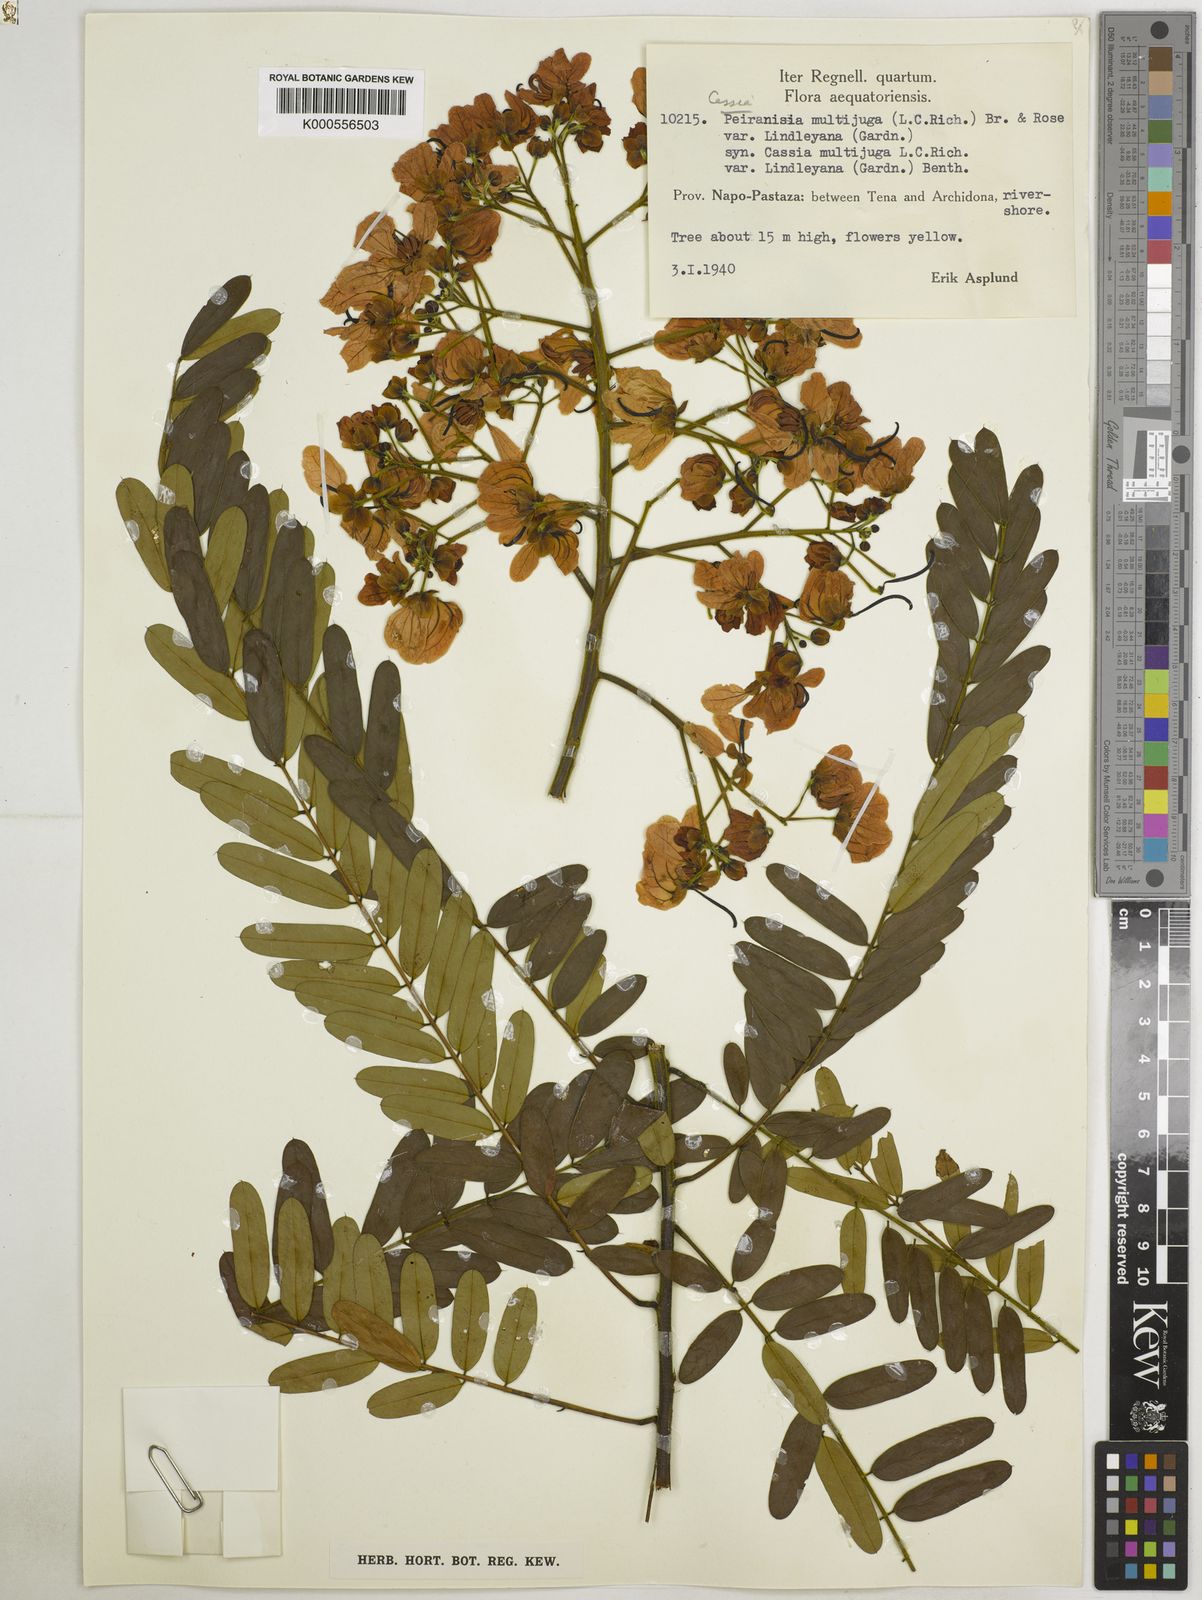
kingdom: Plantae
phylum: Tracheophyta
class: Magnoliopsida
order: Fabales
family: Fabaceae
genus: Senna
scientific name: Senna multijuga
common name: False sicklepod
